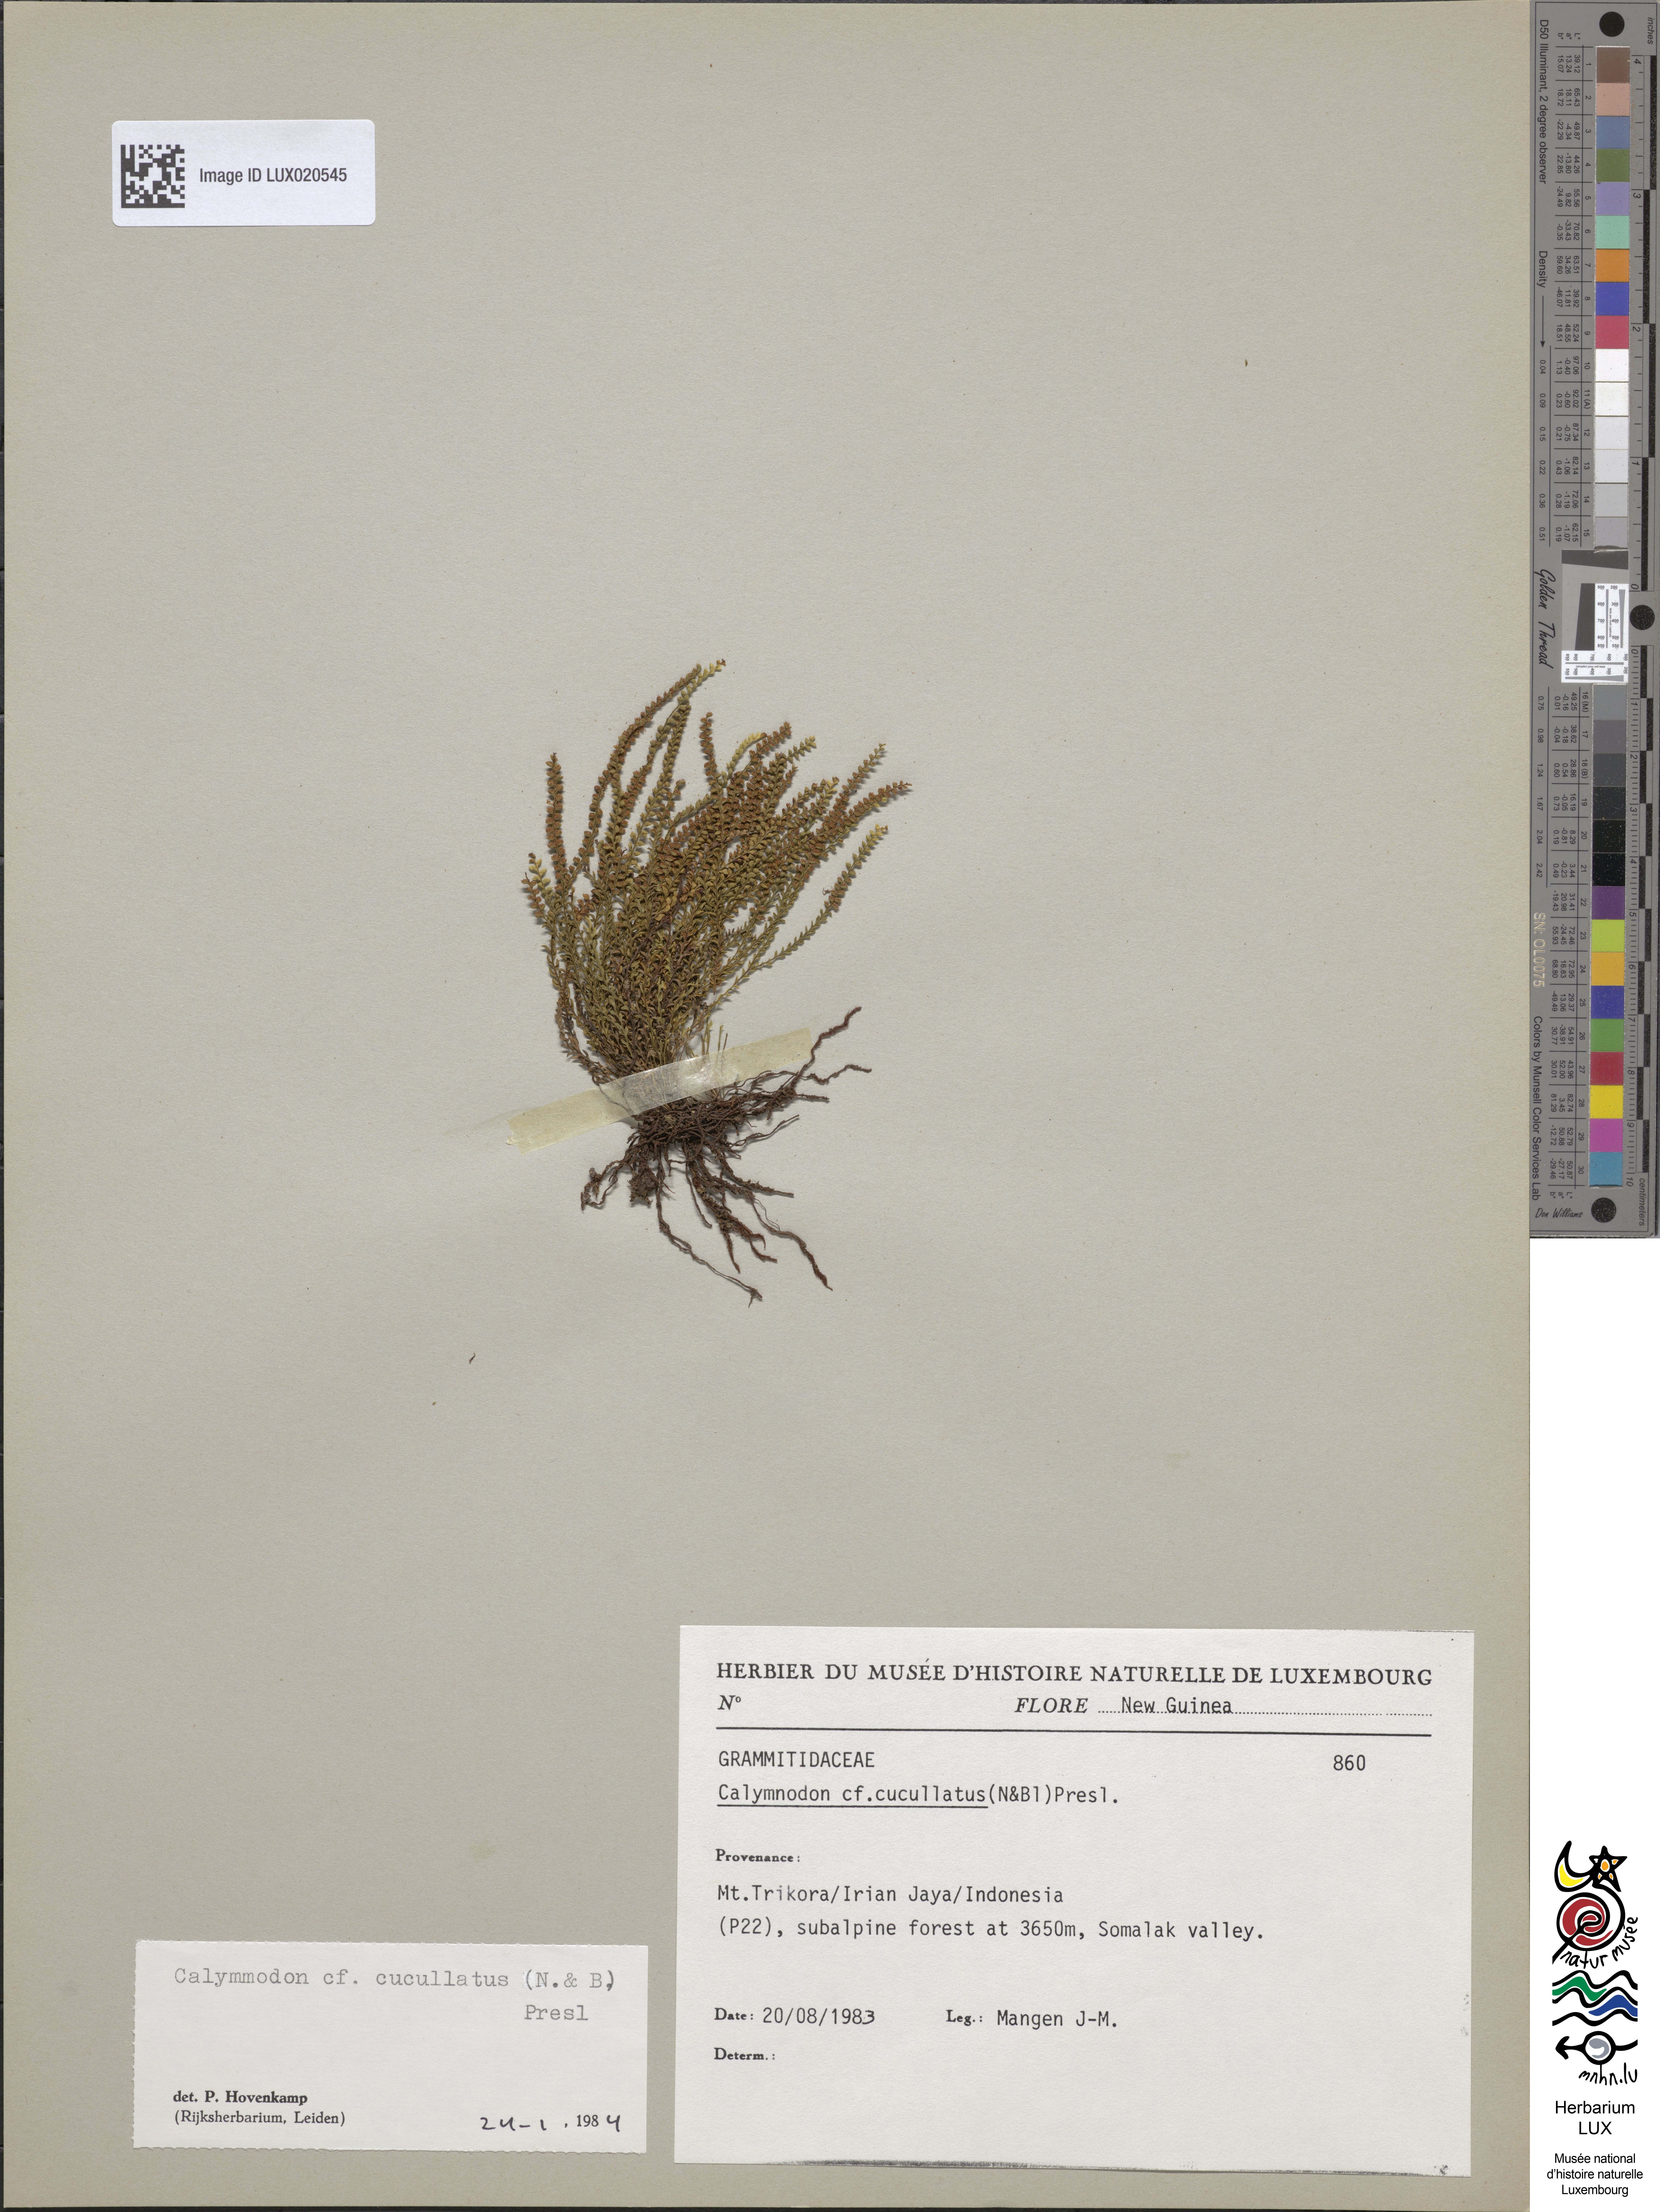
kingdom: Plantae
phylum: Tracheophyta
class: Polypodiopsida
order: Polypodiales
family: Polypodiaceae
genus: Calymmodon
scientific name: Calymmodon cucullatus
